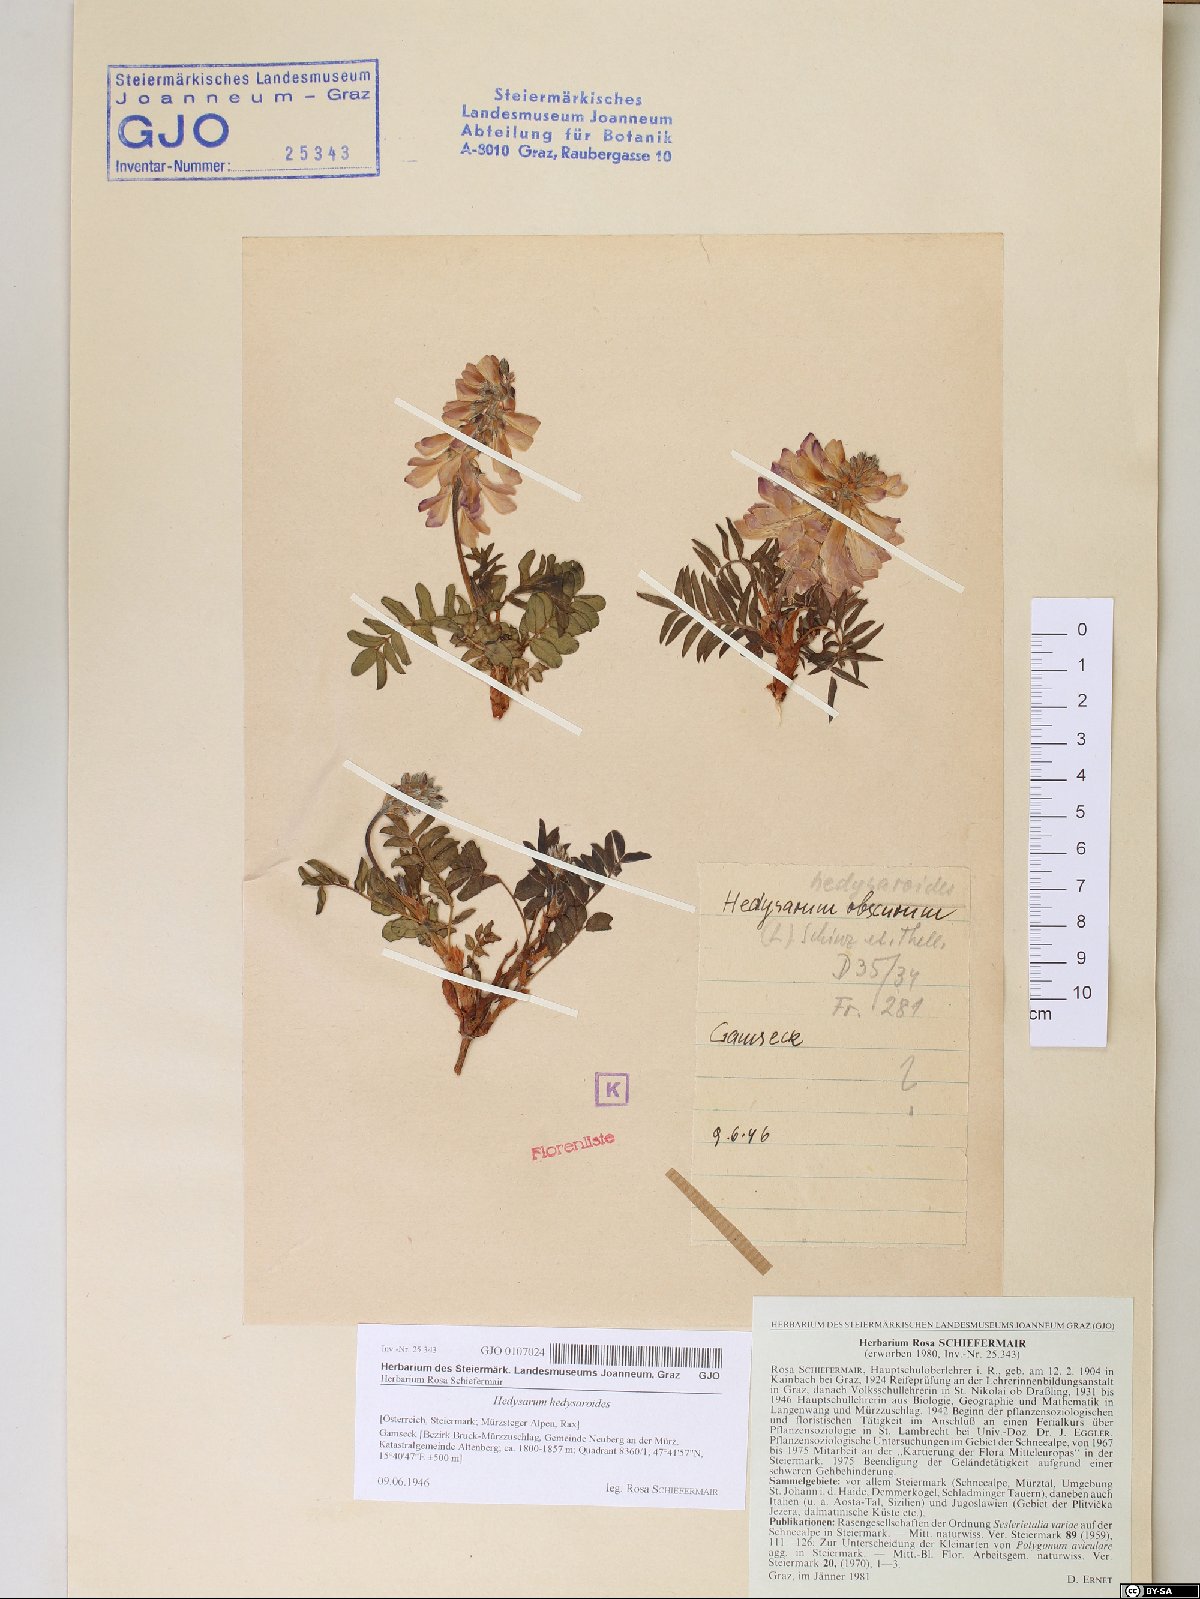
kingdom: Plantae
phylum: Tracheophyta
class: Magnoliopsida
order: Fabales
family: Fabaceae
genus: Hedysarum
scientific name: Hedysarum hedysaroides
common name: Alpine french-honeysuckle
